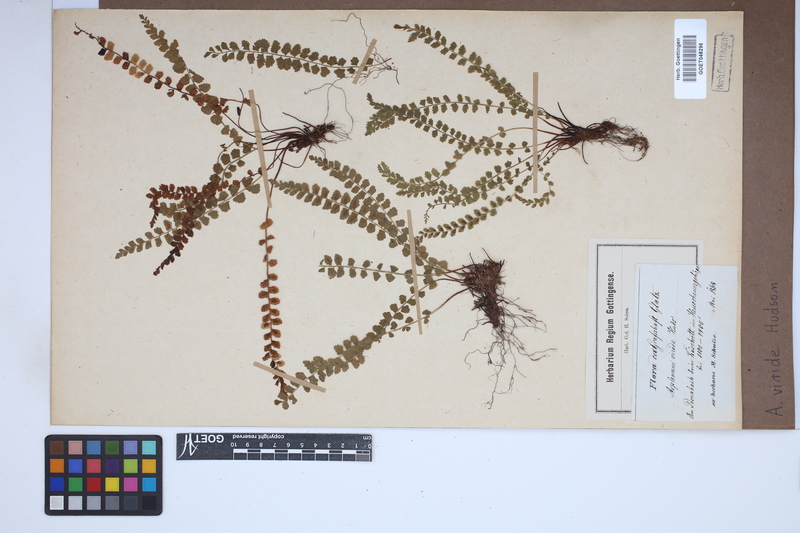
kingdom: Plantae
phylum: Tracheophyta
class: Polypodiopsida
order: Polypodiales
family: Aspleniaceae
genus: Asplenium
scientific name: Asplenium viride
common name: Green spleenwort
